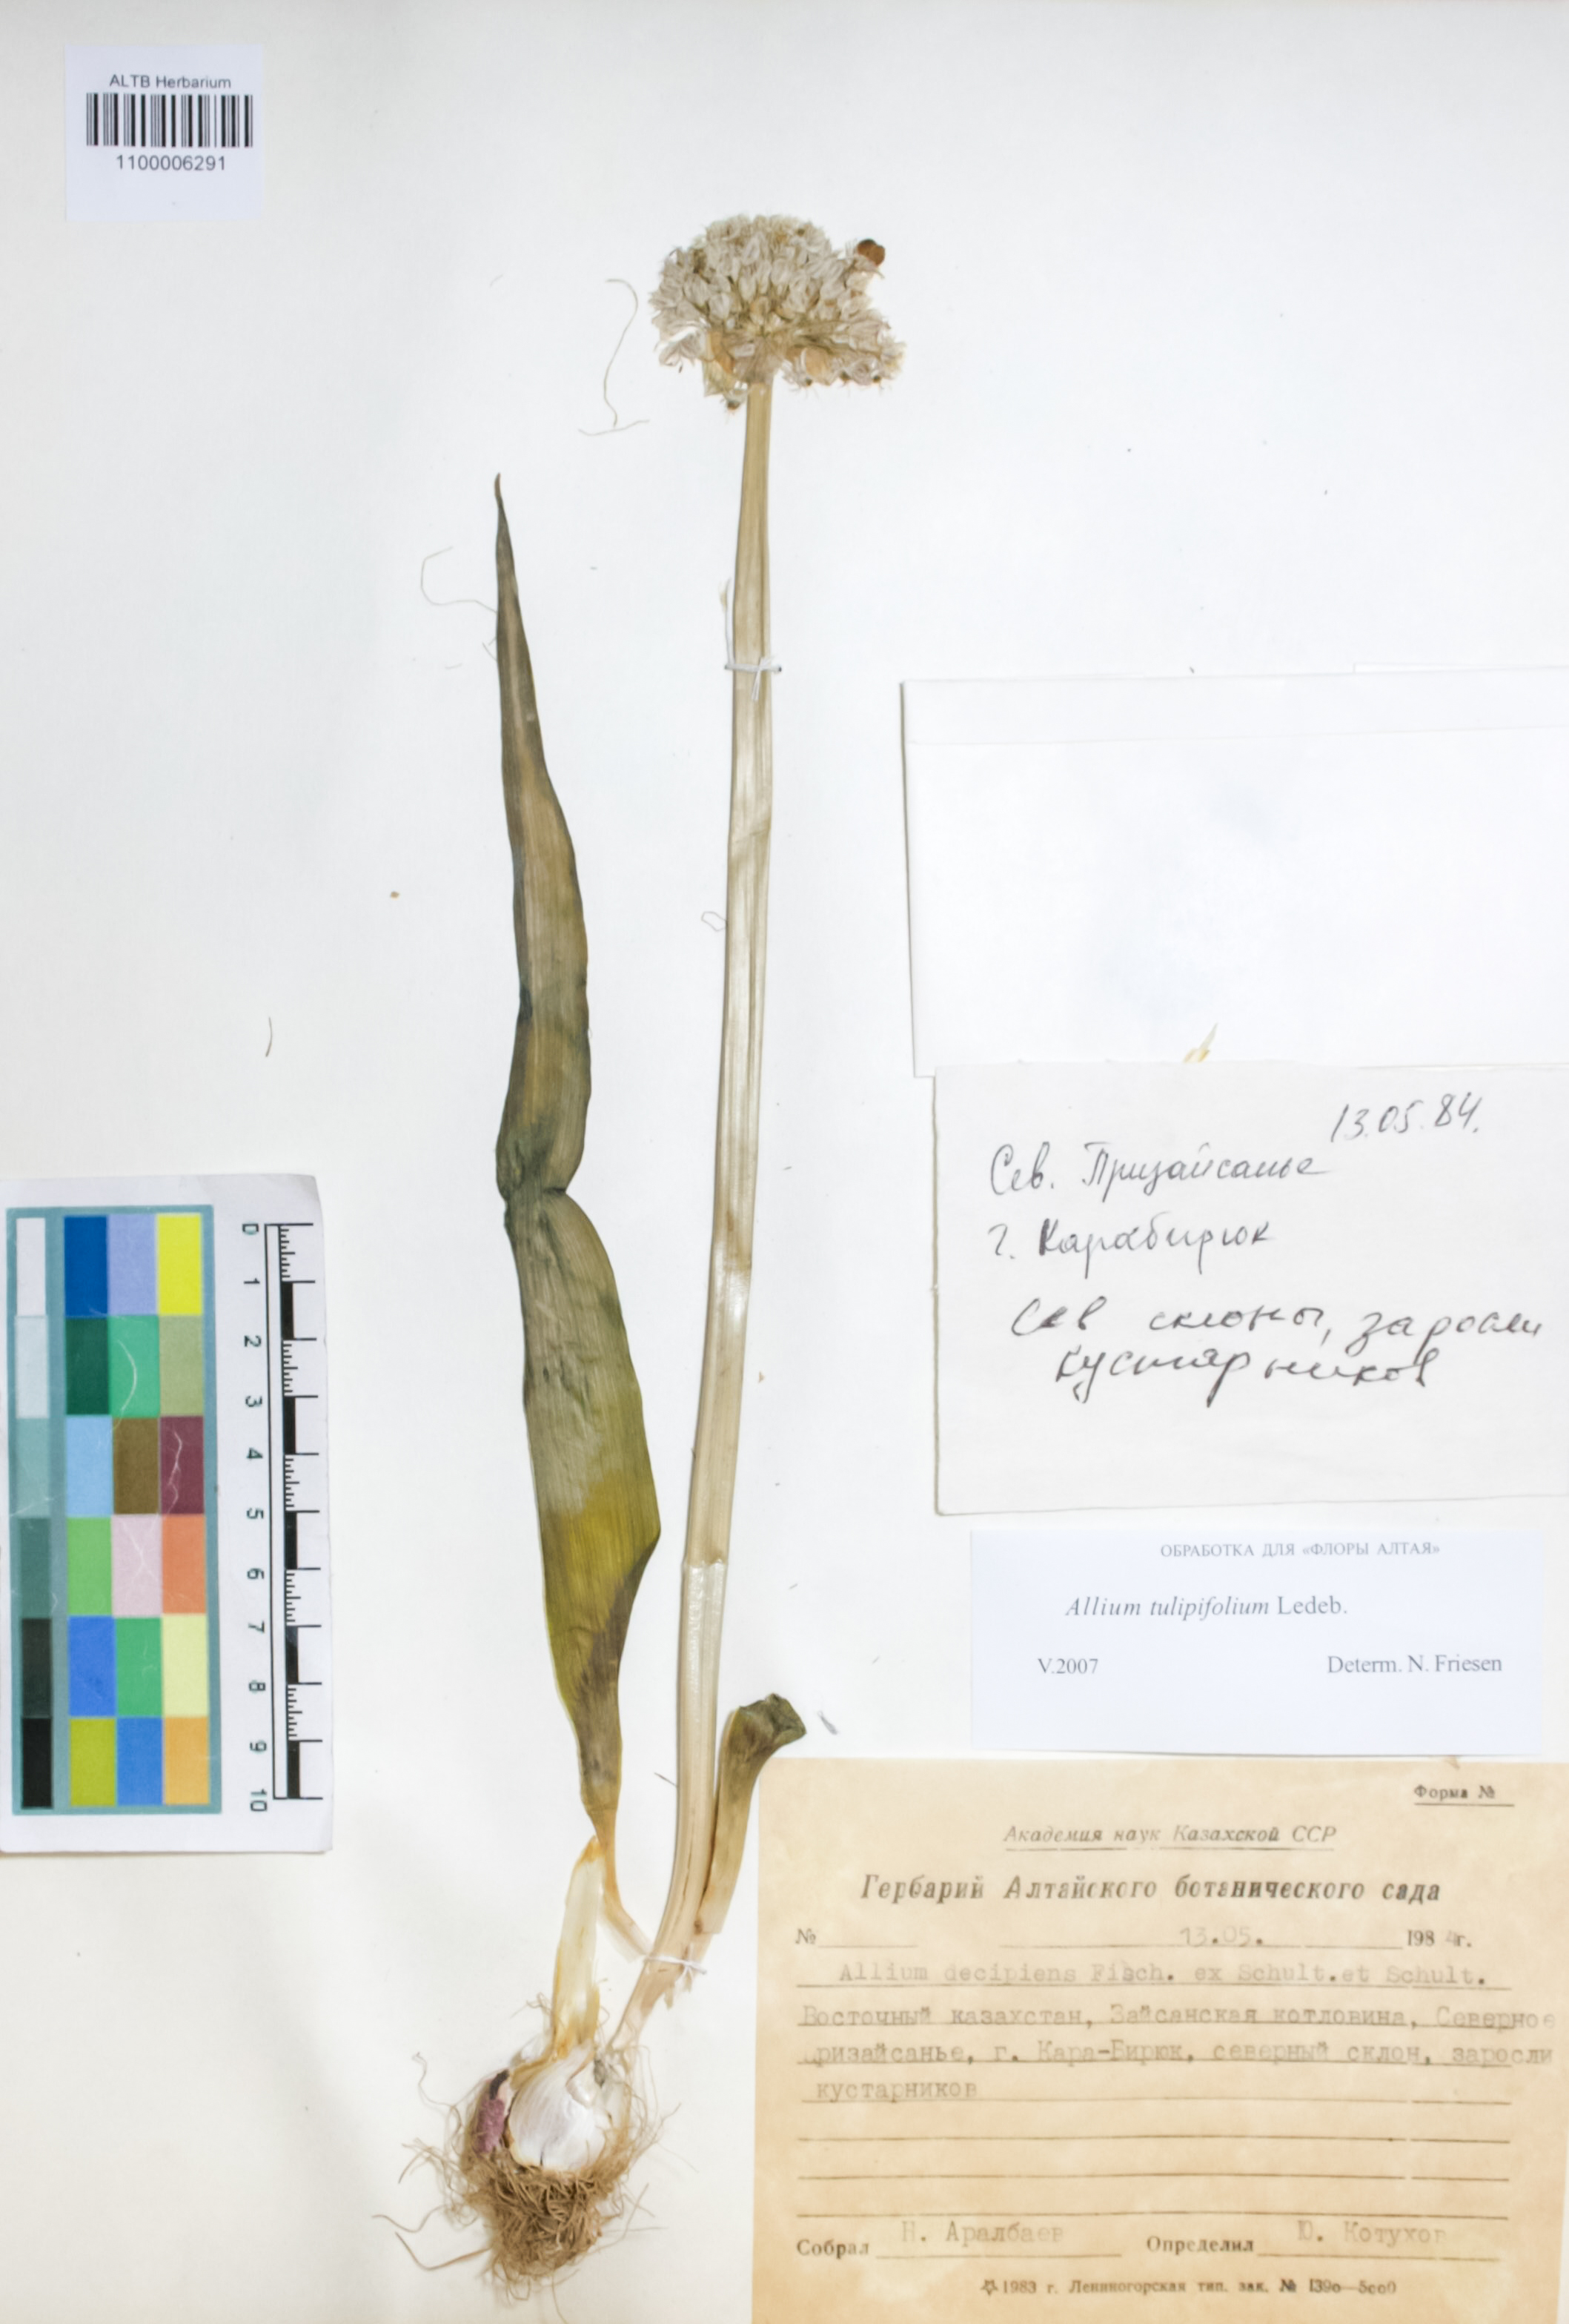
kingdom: Plantae
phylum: Tracheophyta
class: Liliopsida
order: Asparagales
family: Amaryllidaceae
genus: Allium
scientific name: Allium tulipifolium
